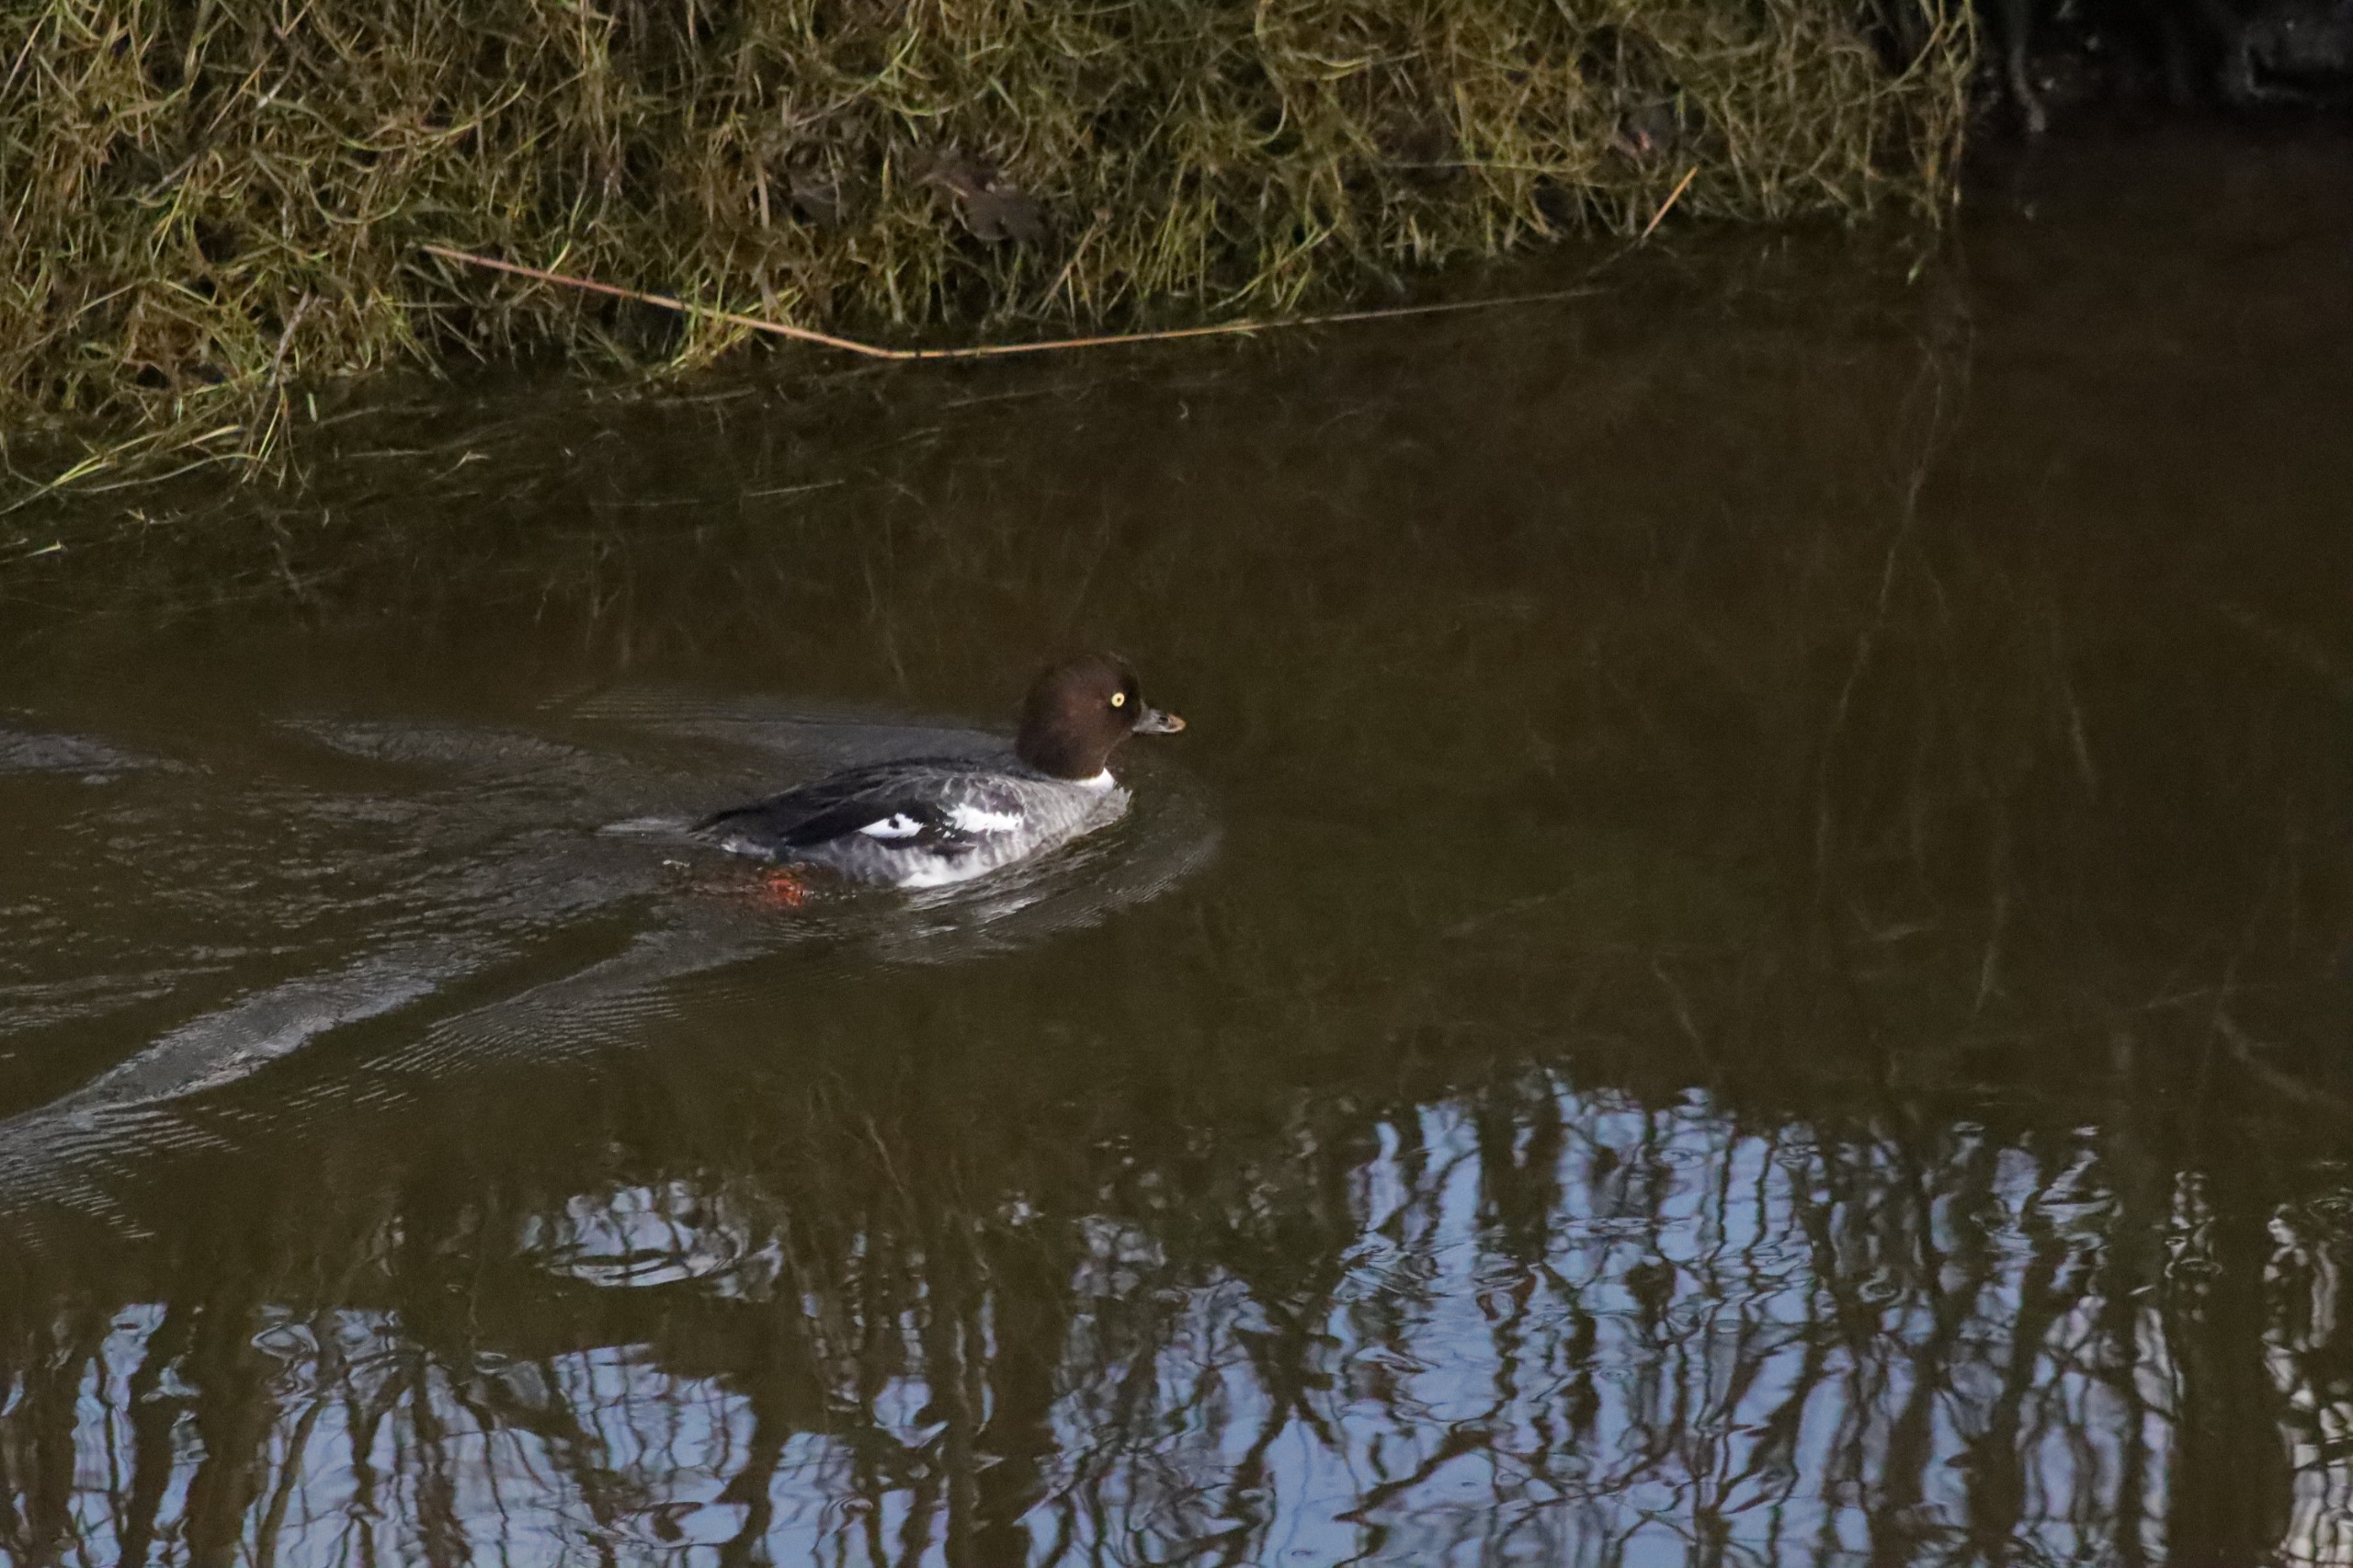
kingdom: Animalia
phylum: Chordata
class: Aves
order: Anseriformes
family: Anatidae
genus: Bucephala
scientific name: Bucephala clangula
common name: Hvinand
